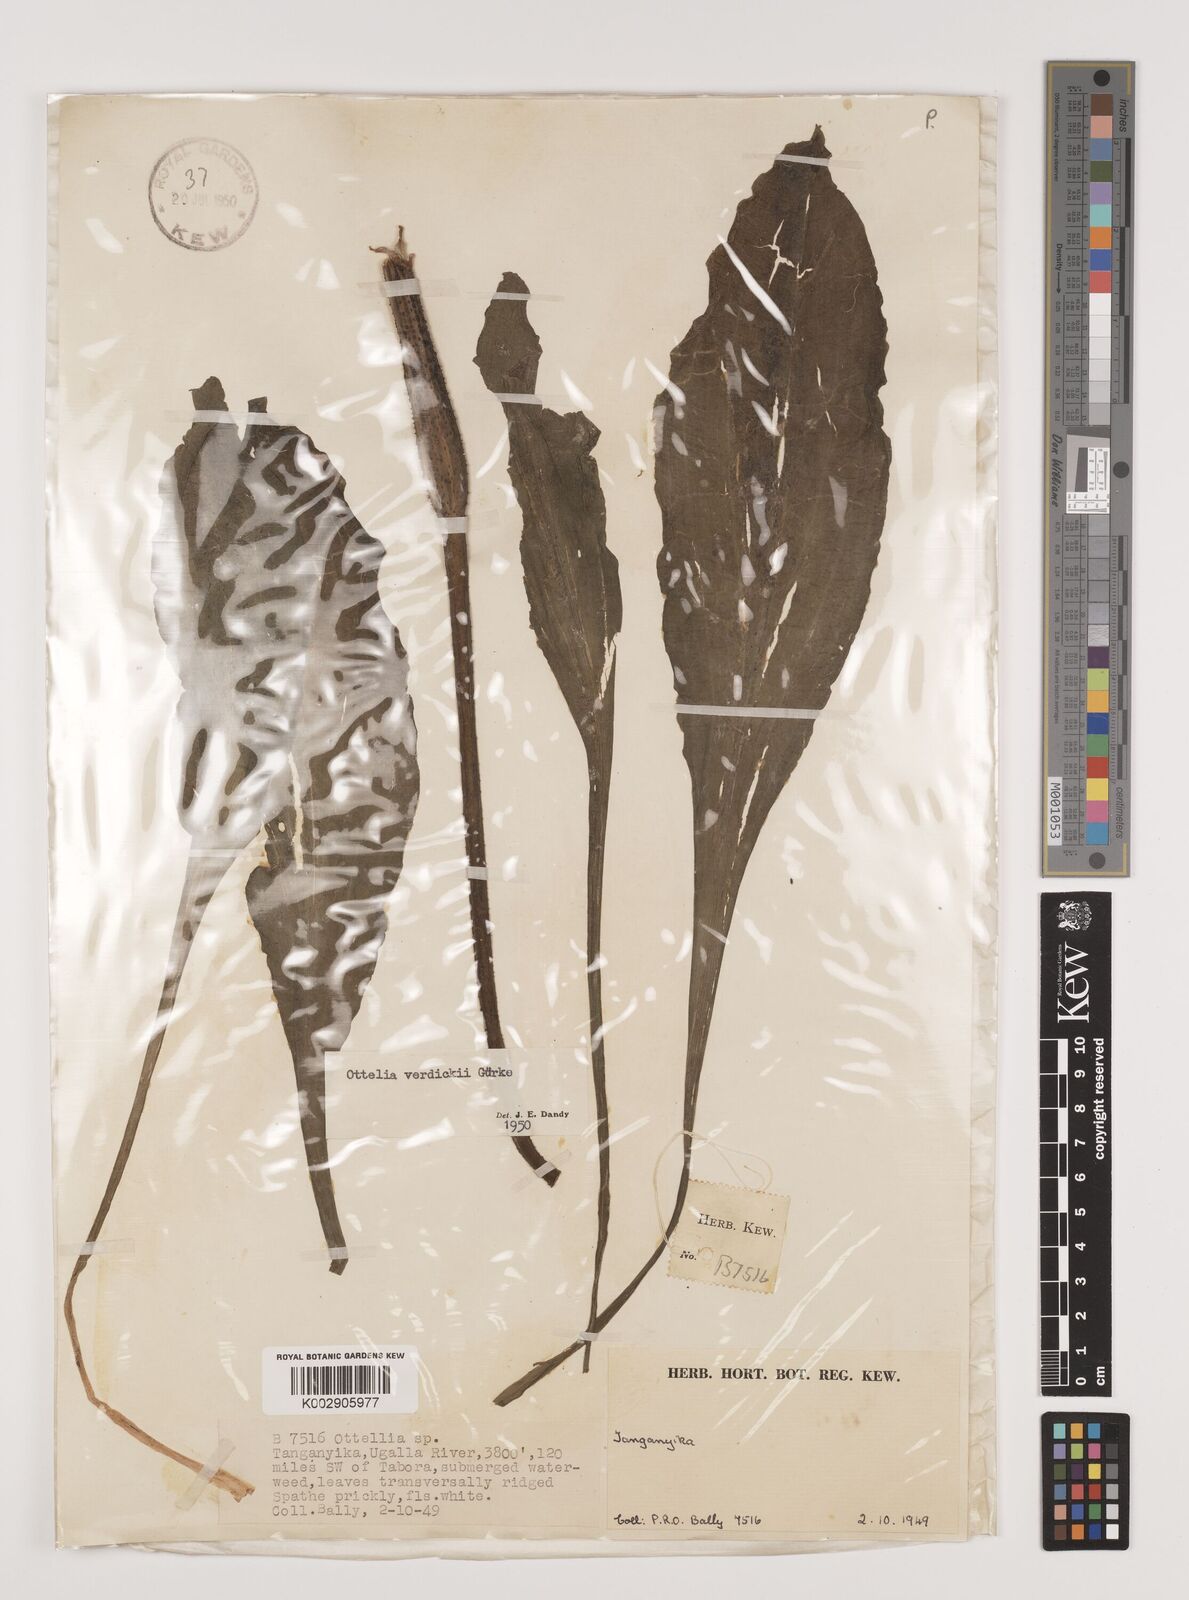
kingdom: Plantae
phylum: Tracheophyta
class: Liliopsida
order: Alismatales
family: Hydrocharitaceae
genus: Ottelia
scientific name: Ottelia verdickii
